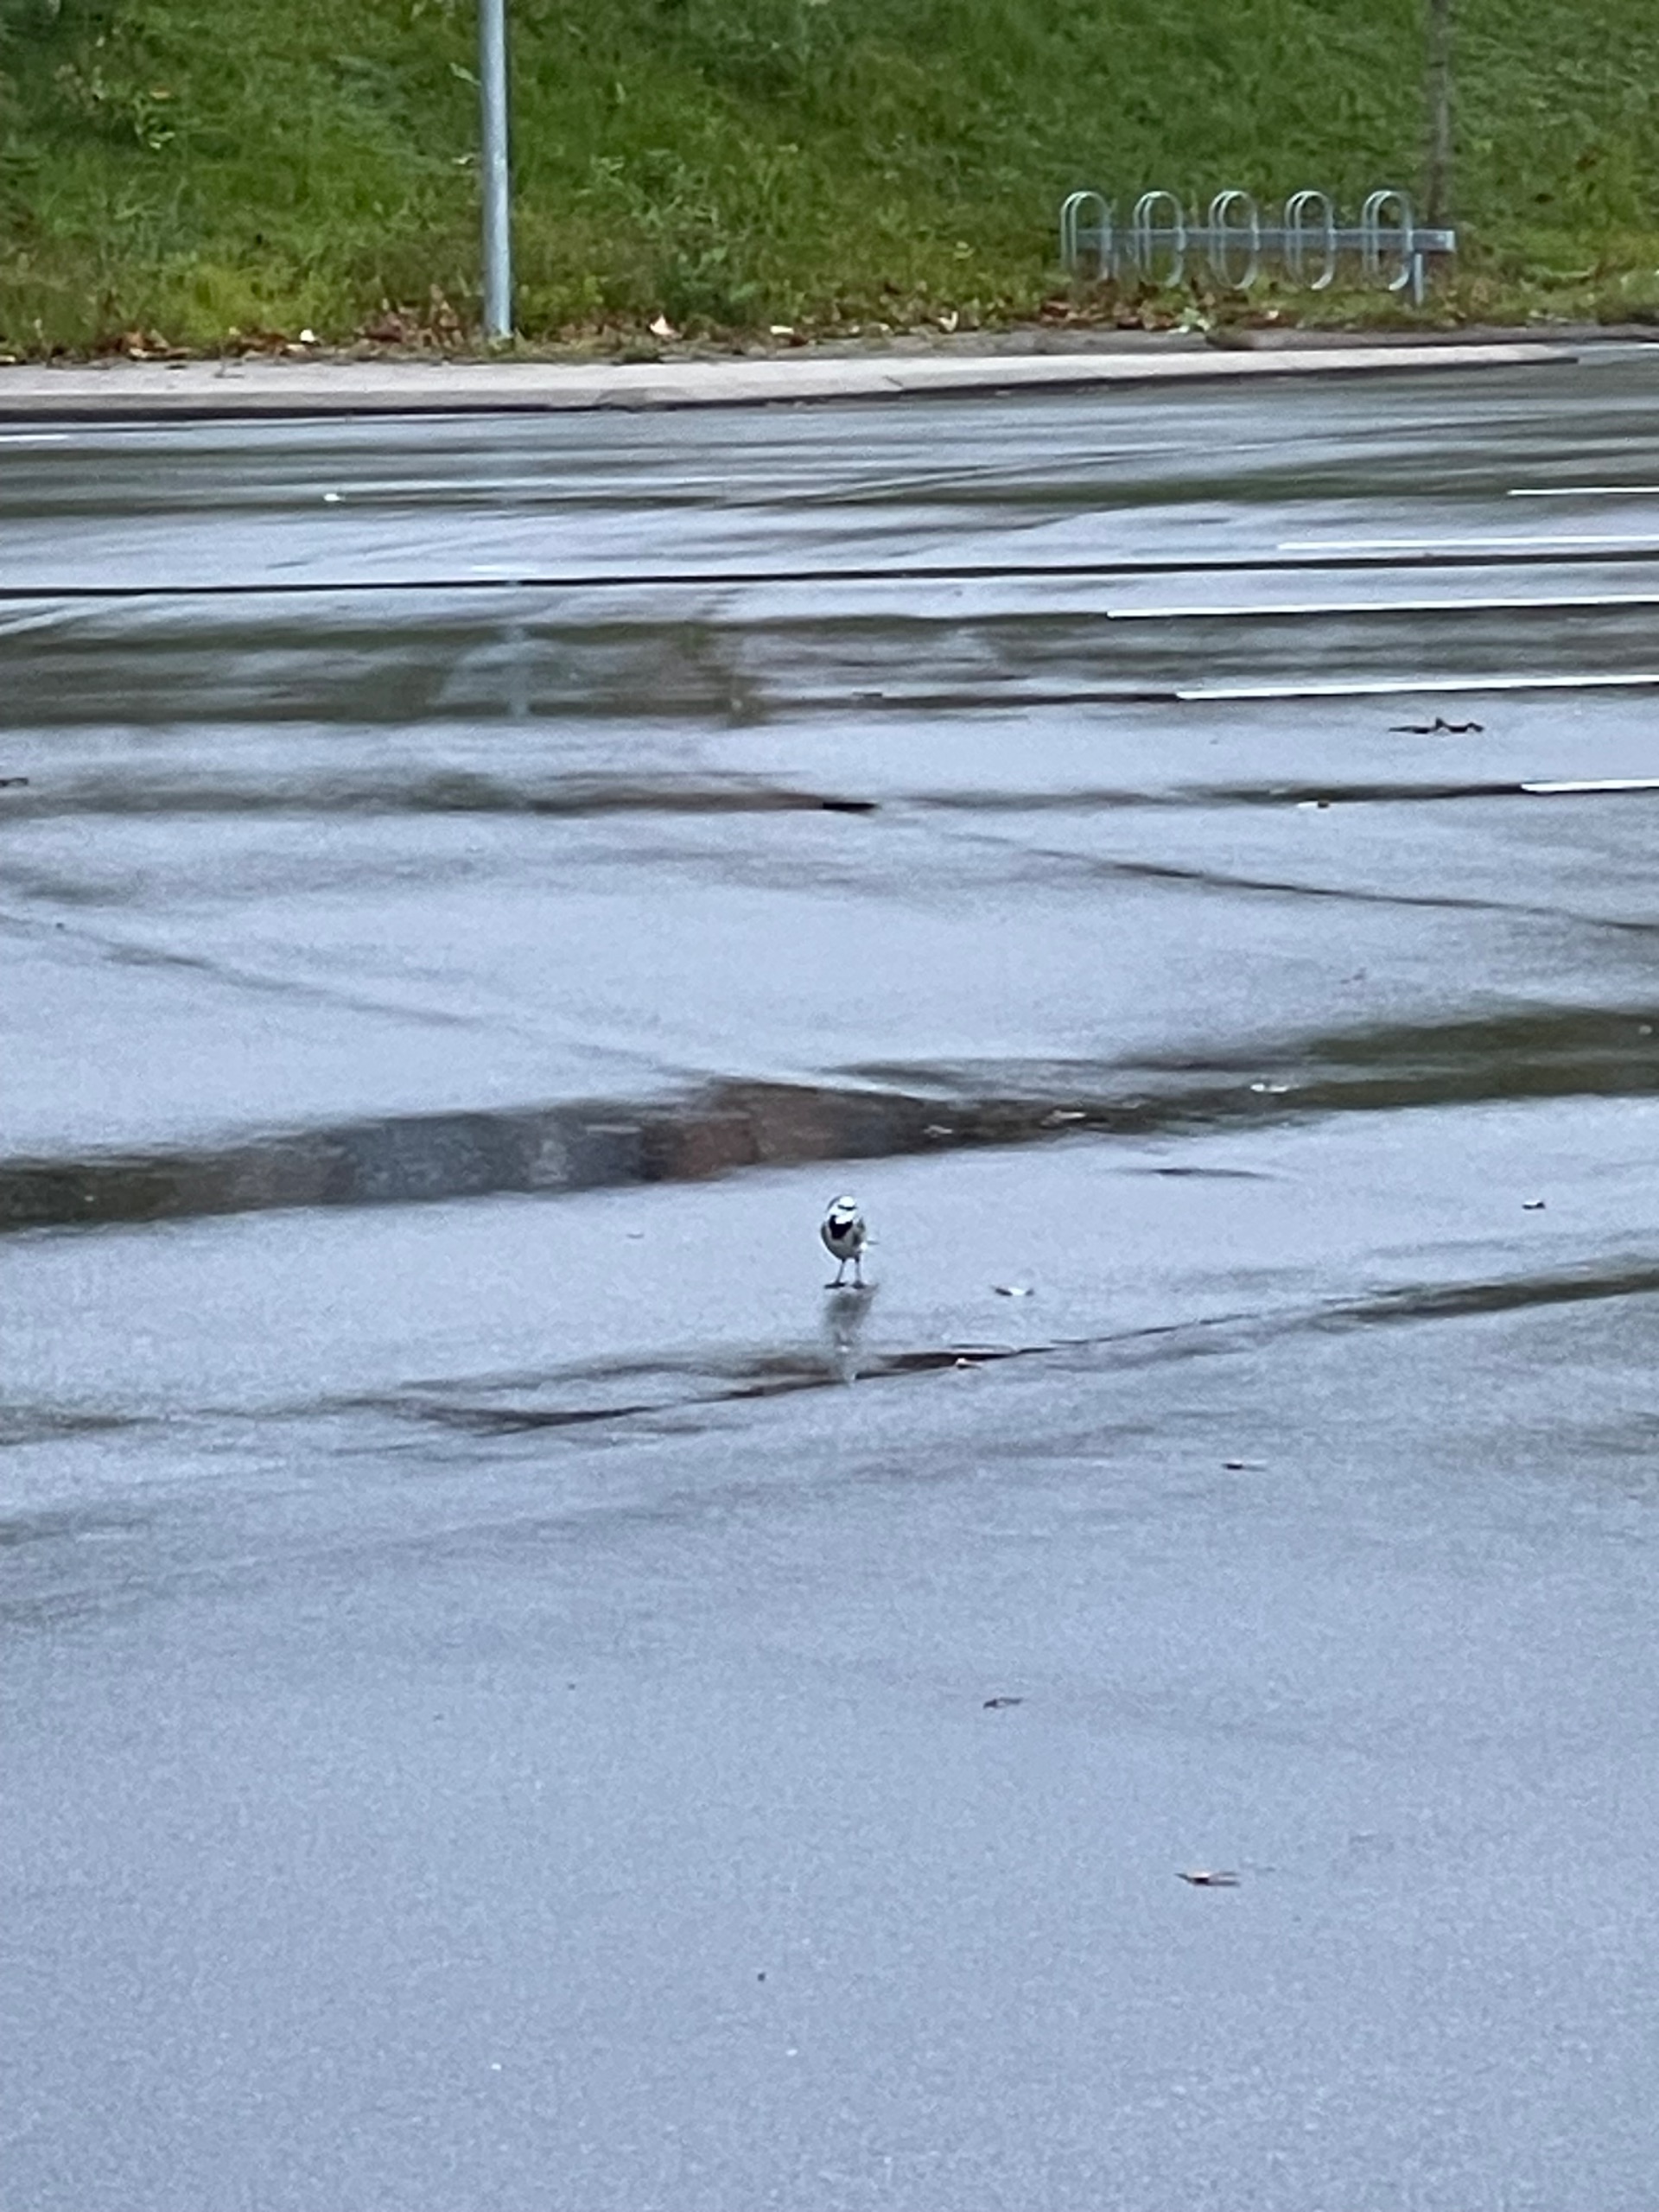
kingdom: Animalia
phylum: Chordata
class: Aves
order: Passeriformes
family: Motacillidae
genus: Motacilla
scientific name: Motacilla alba
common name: Hvid vipstjert
